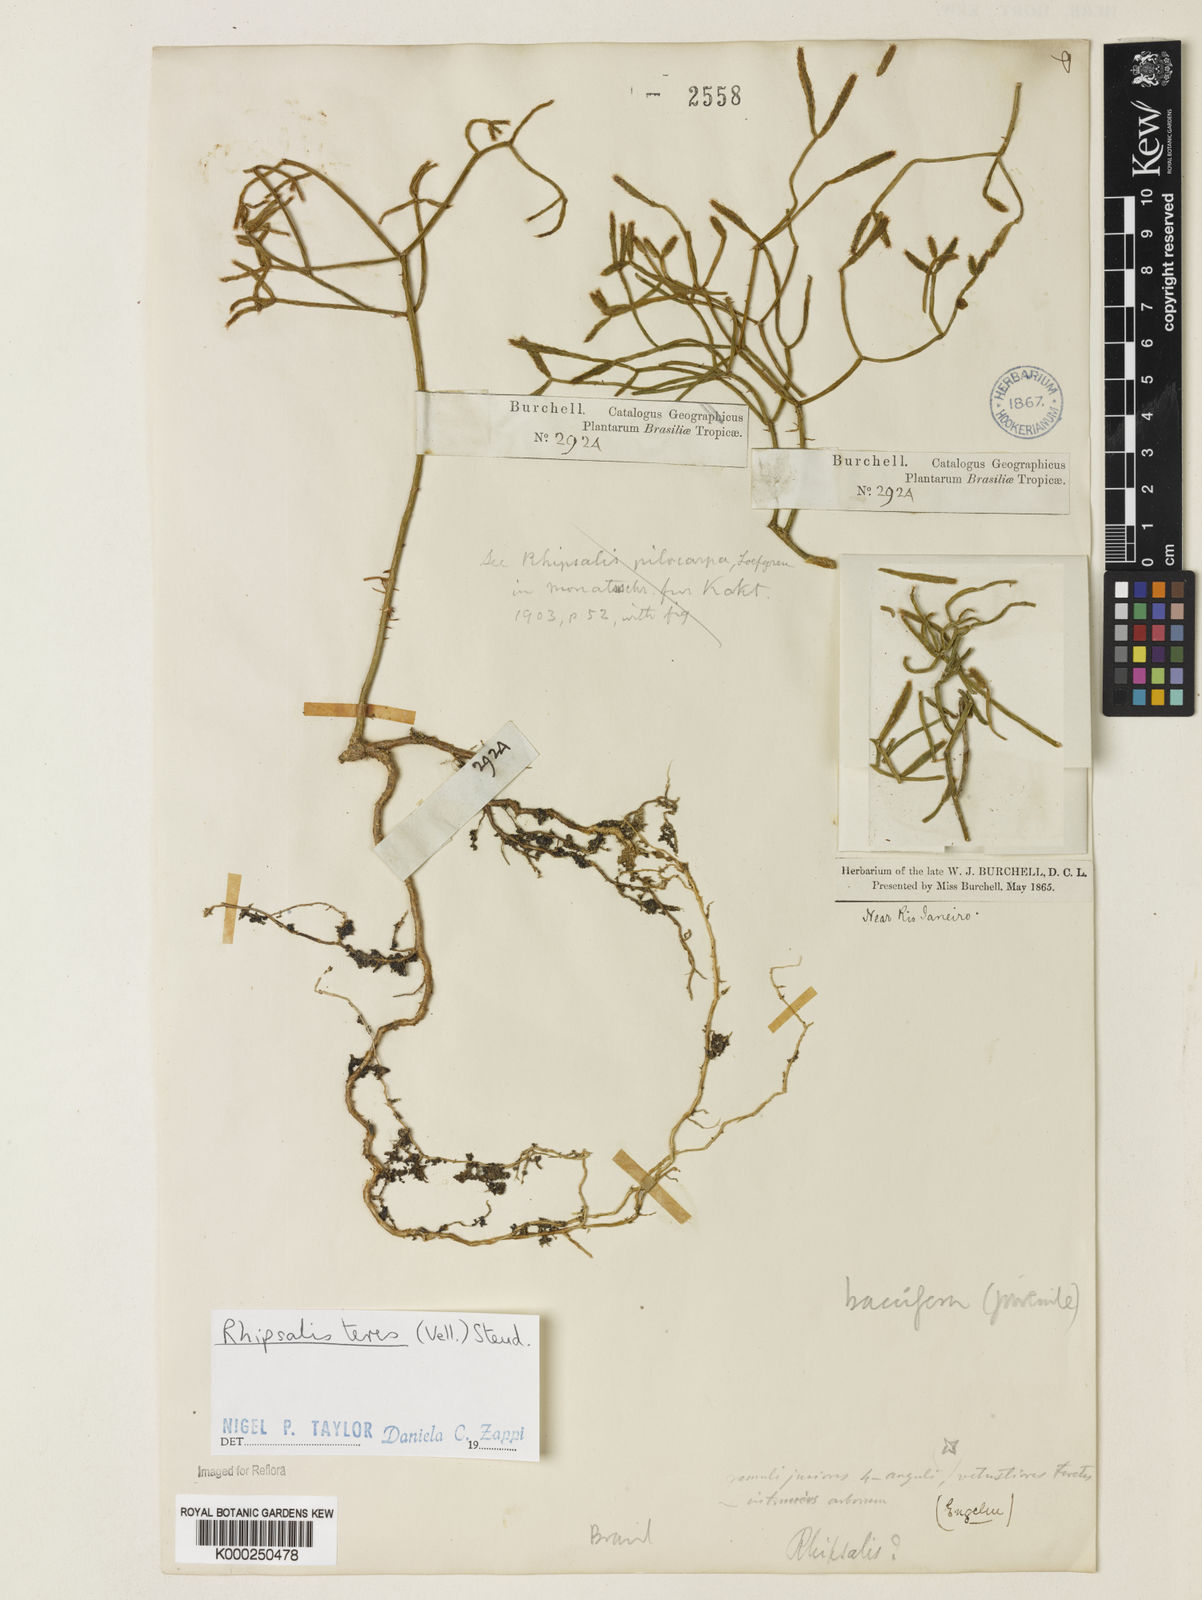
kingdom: Plantae
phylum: Tracheophyta
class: Magnoliopsida
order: Caryophyllales
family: Cactaceae
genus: Rhipsalis
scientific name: Rhipsalis teres
